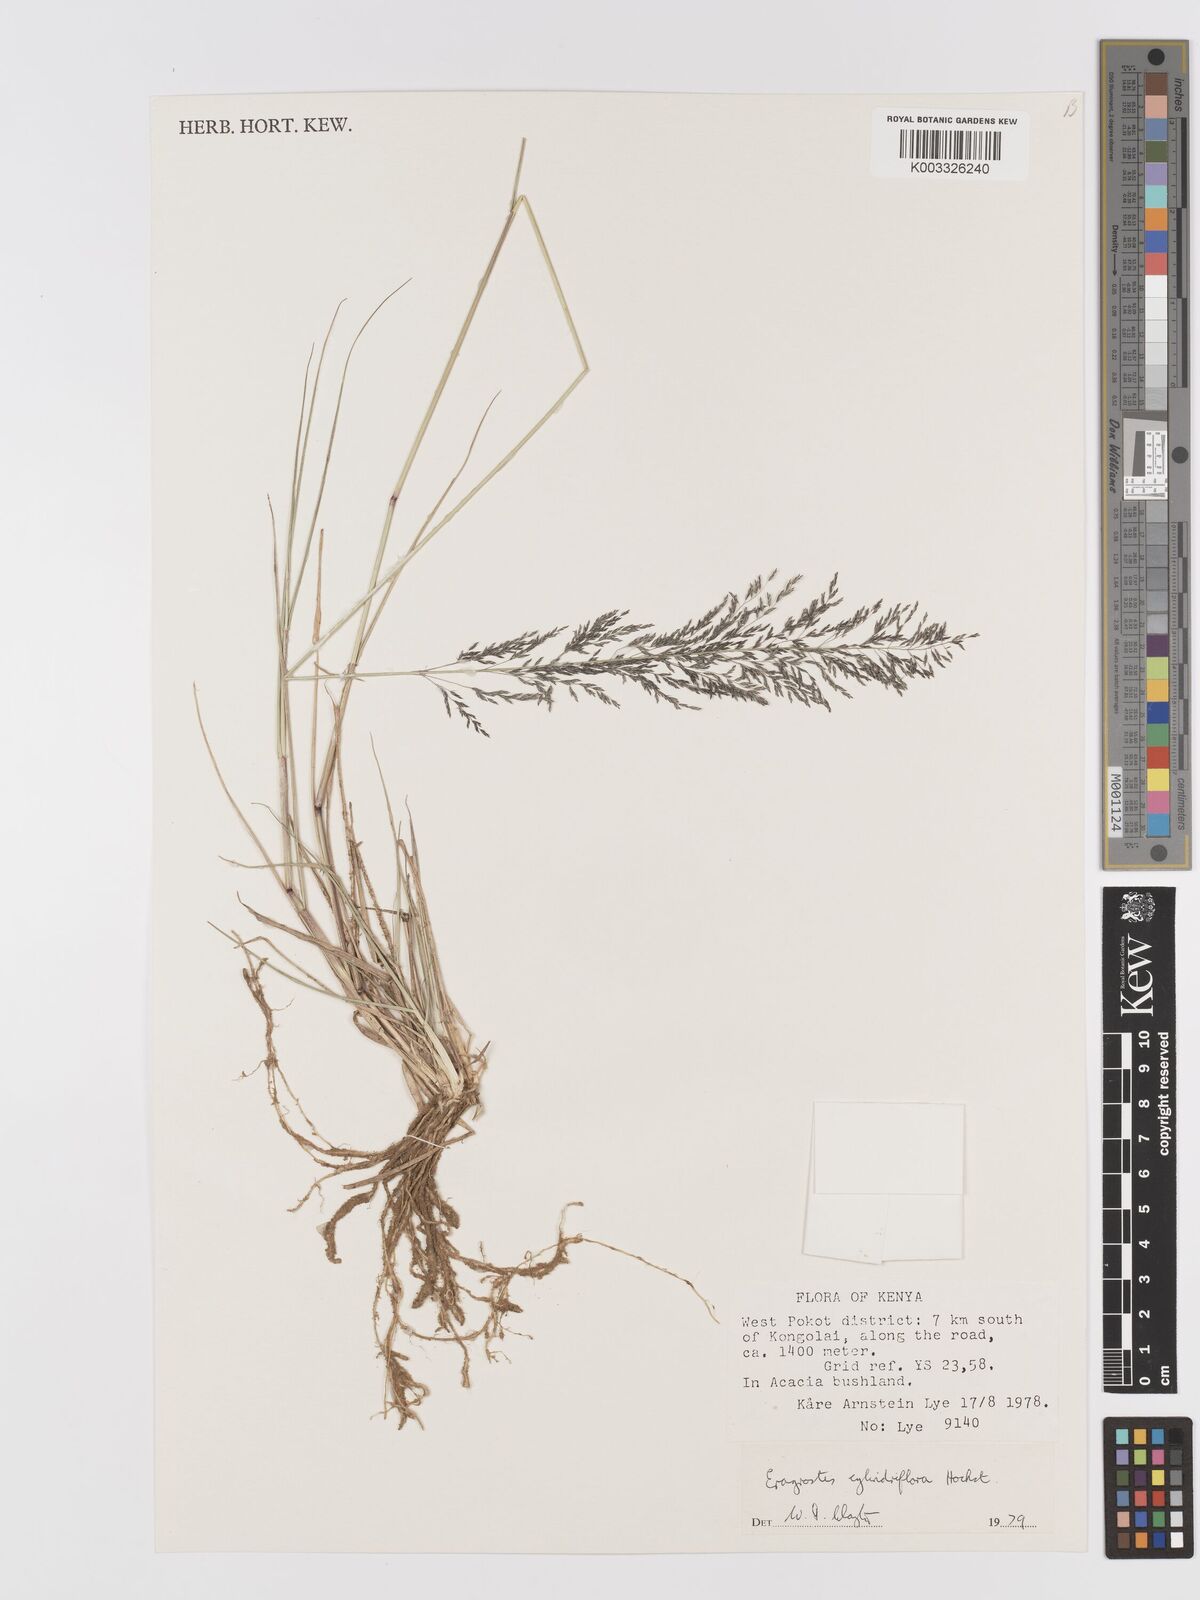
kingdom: Plantae
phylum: Tracheophyta
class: Liliopsida
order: Poales
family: Poaceae
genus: Eragrostis
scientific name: Eragrostis cylindriflora
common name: Cylinderflower lovegrass
